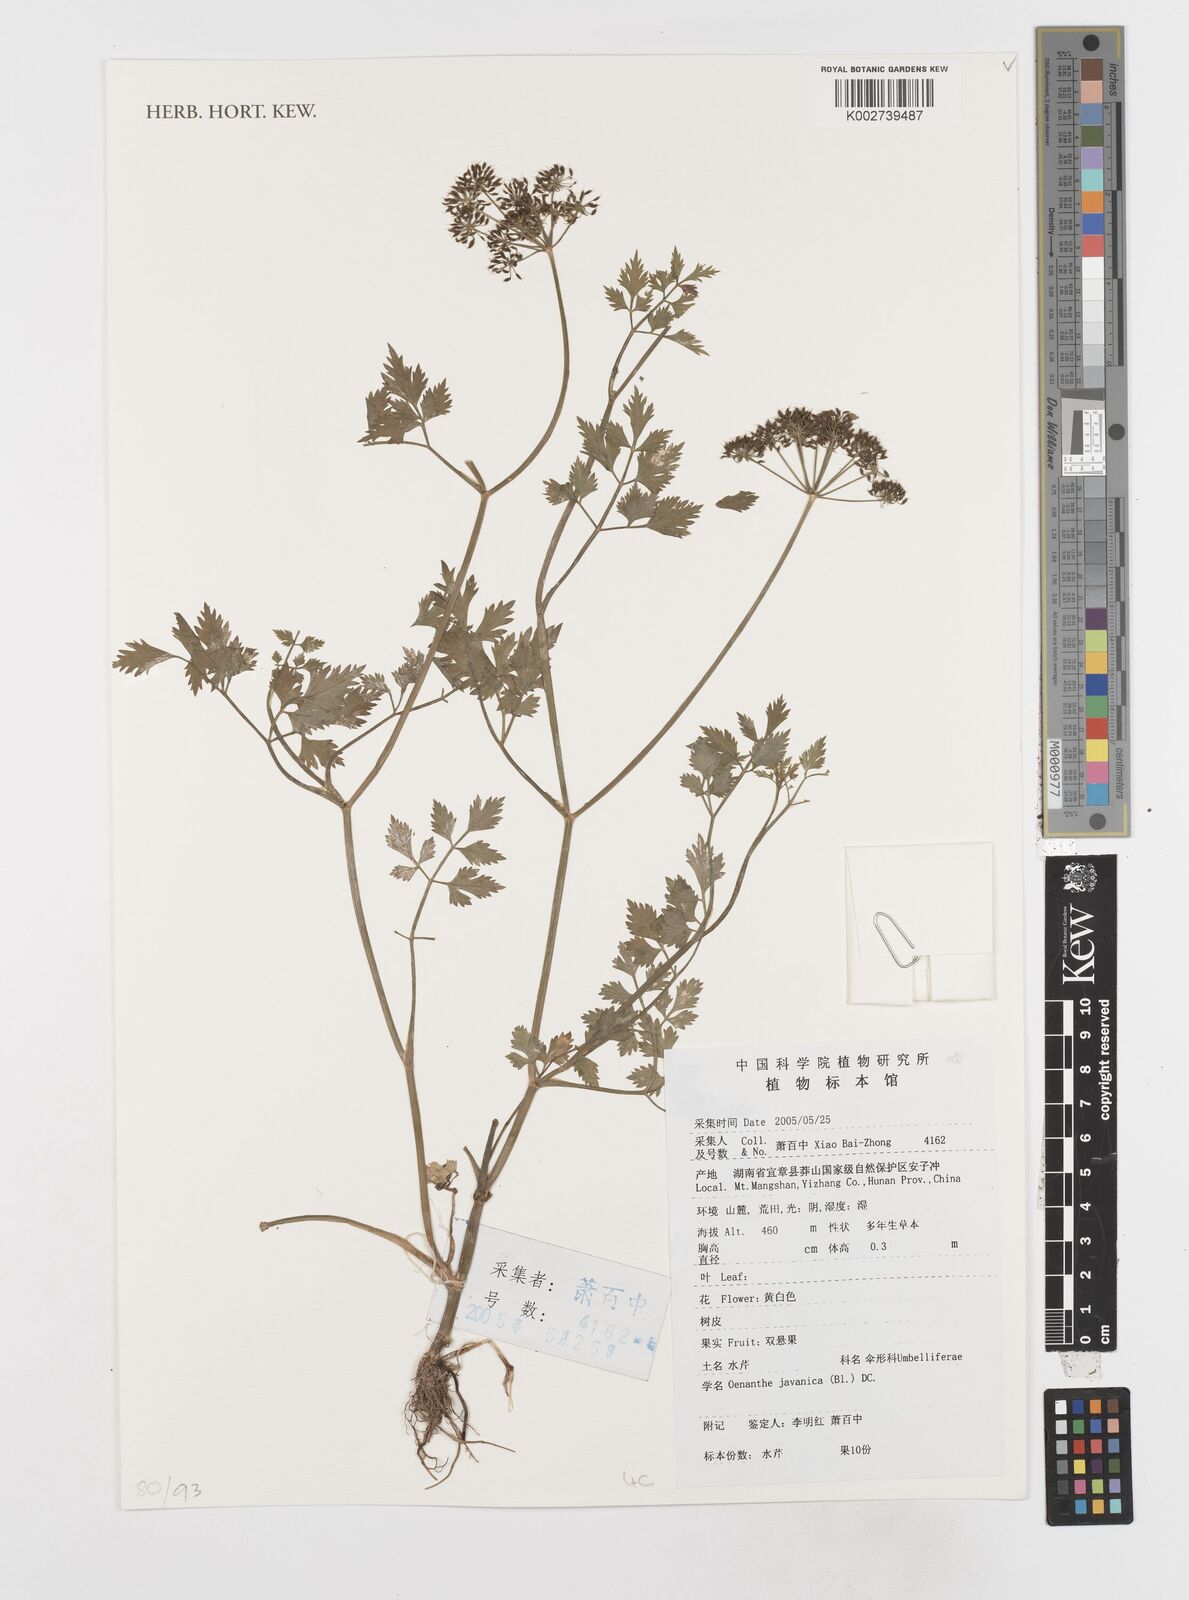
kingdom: Plantae
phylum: Tracheophyta
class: Magnoliopsida
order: Apiales
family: Apiaceae
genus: Oenanthe
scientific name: Oenanthe javanica
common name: Java water-dropwort
